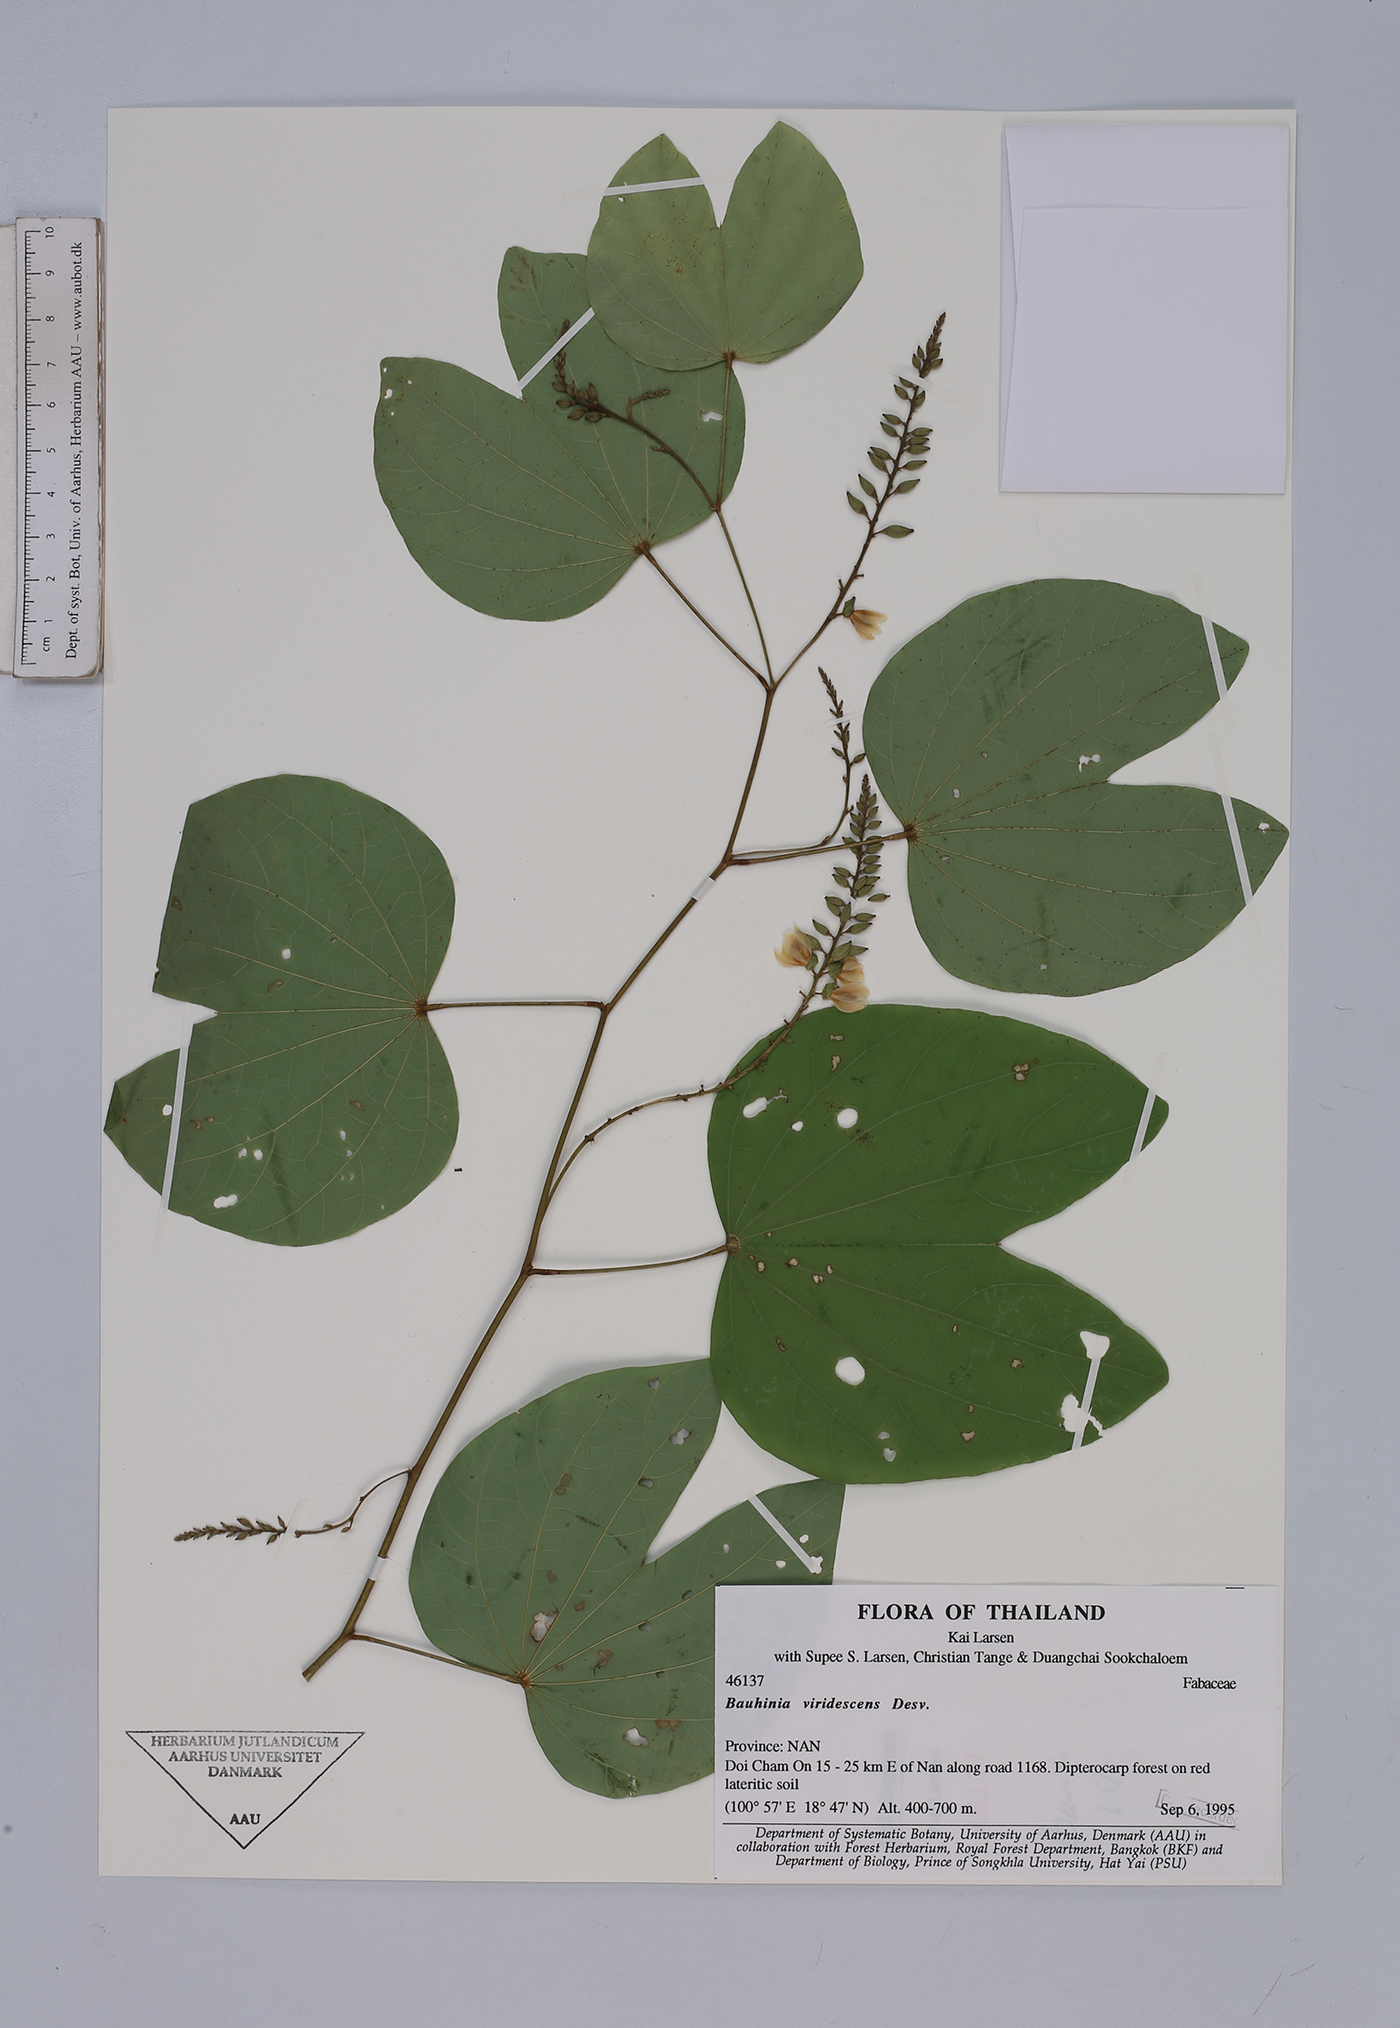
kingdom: Plantae
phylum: Tracheophyta
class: Magnoliopsida
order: Fabales
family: Fabaceae
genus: Bauhinia
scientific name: Bauhinia viridescens
